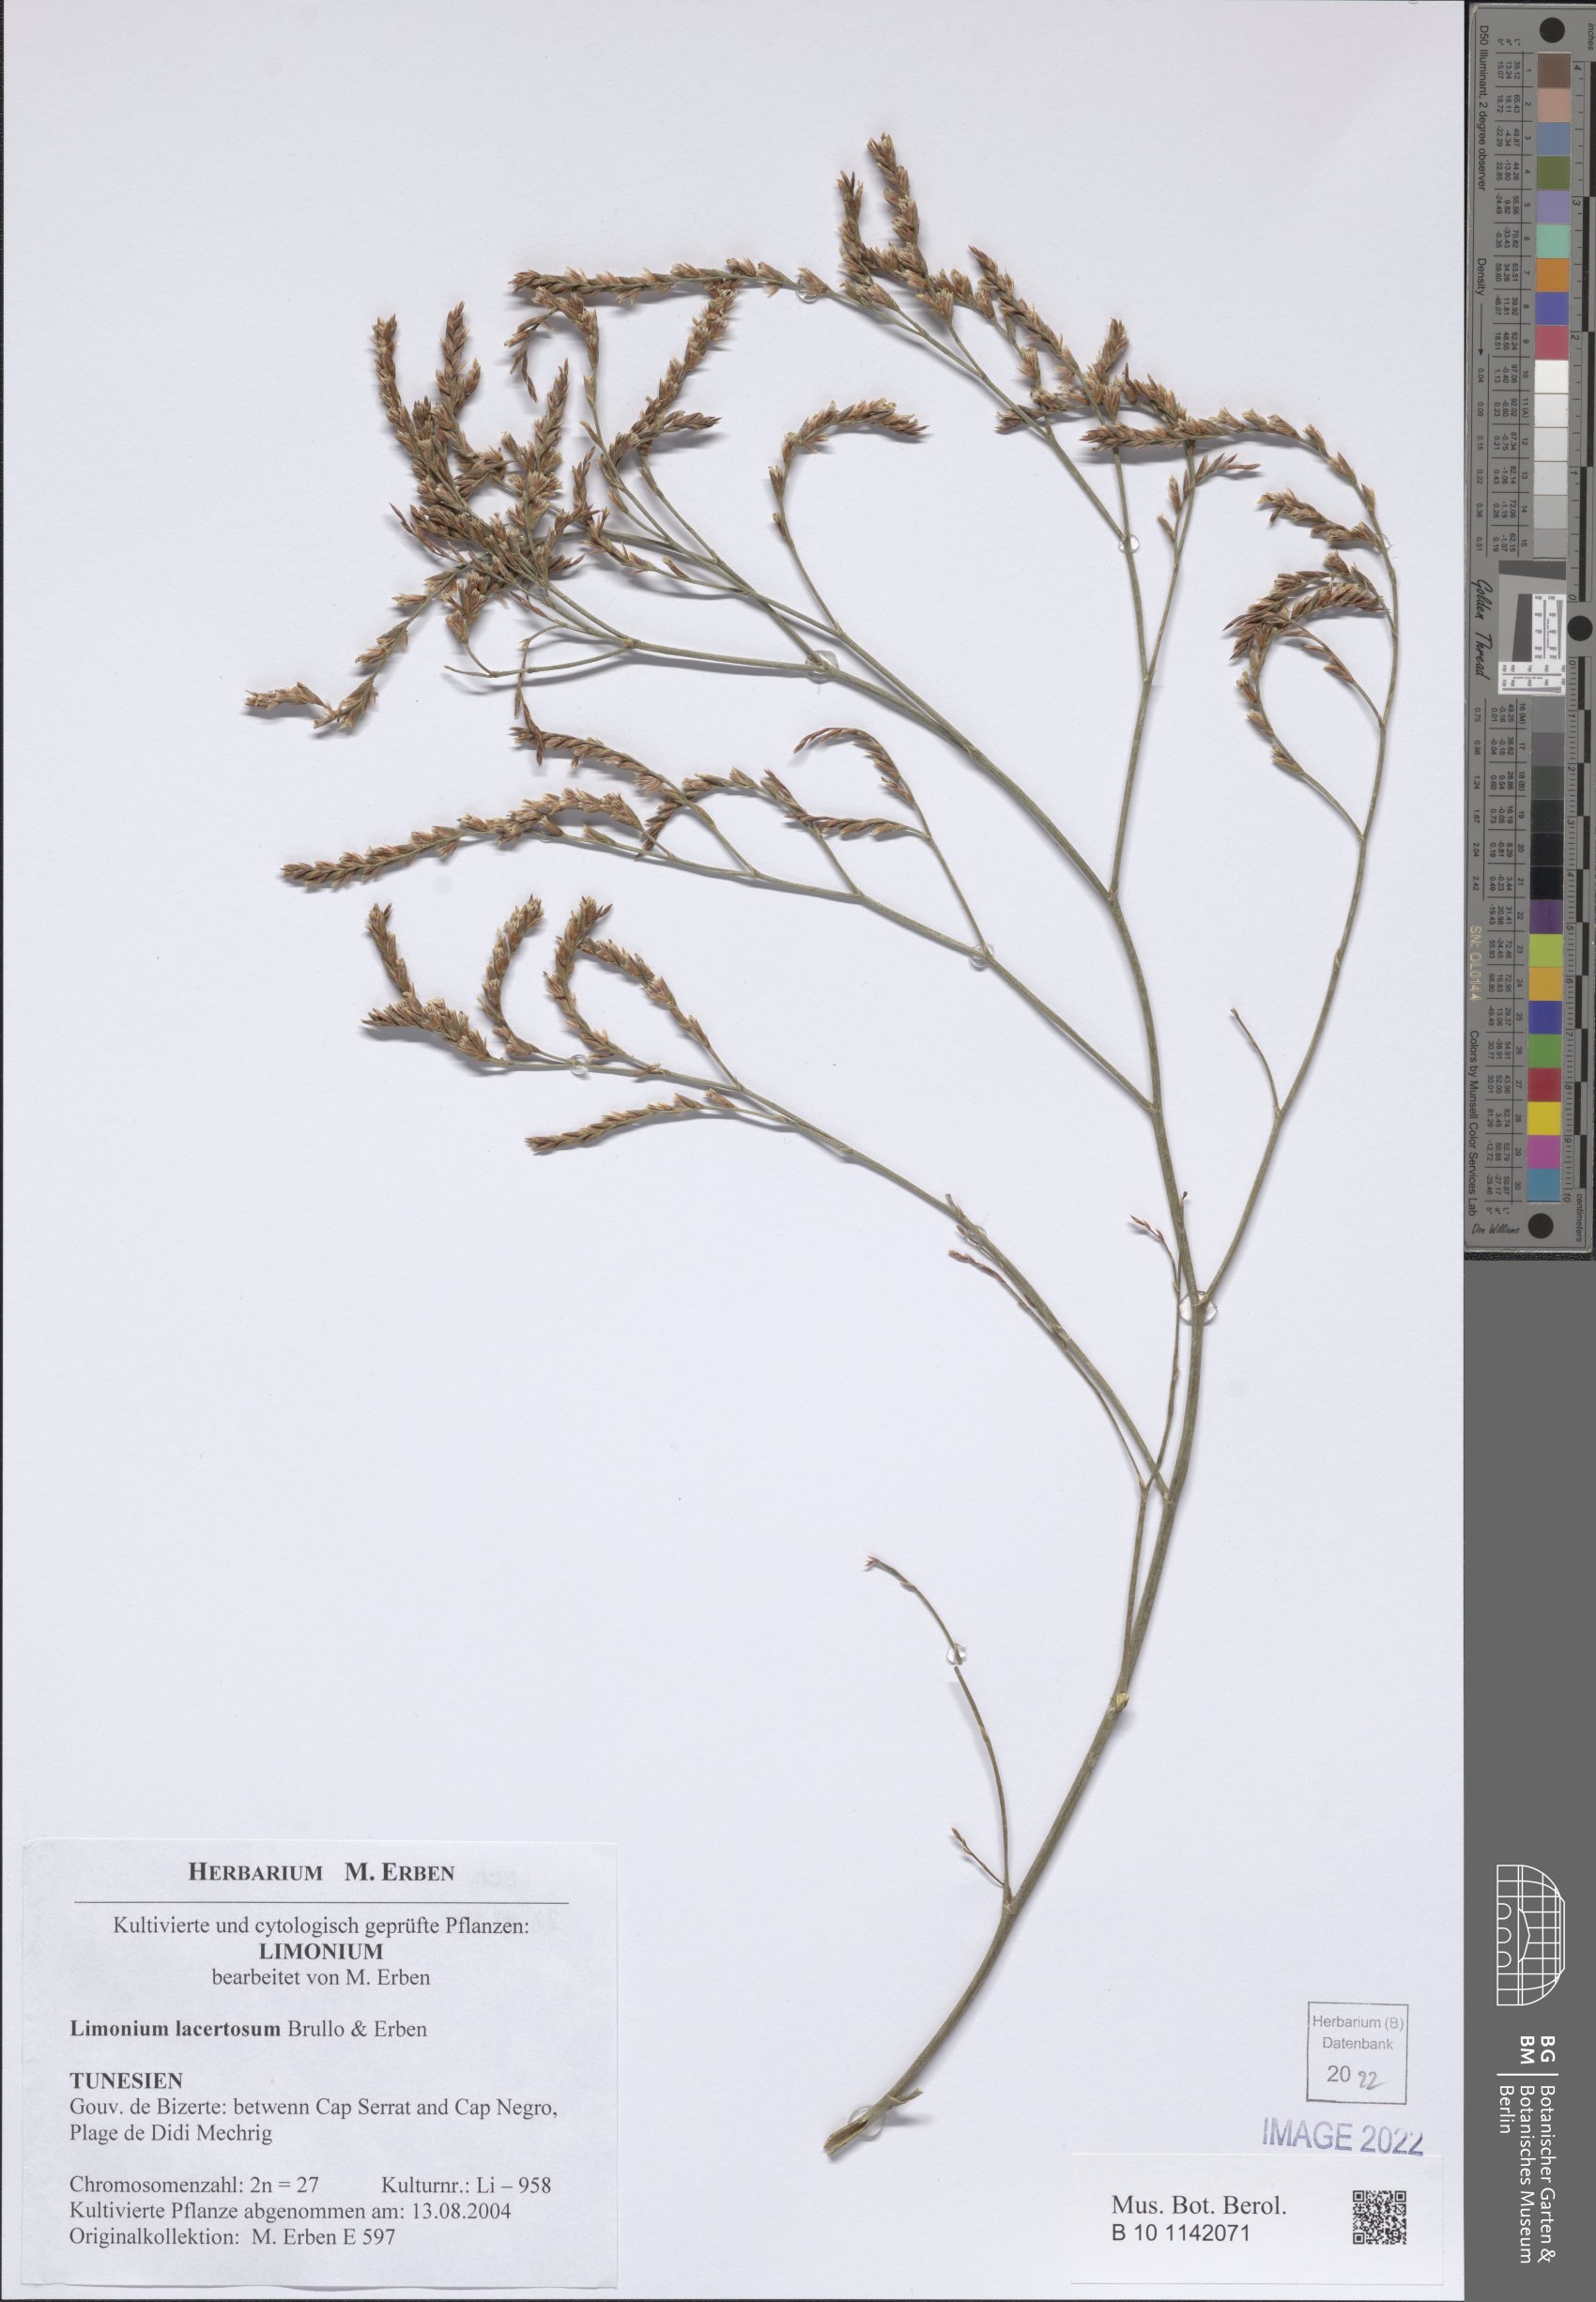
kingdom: Plantae
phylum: Tracheophyta
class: Magnoliopsida
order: Caryophyllales
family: Plumbaginaceae
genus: Limonium
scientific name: Limonium lacertosum
